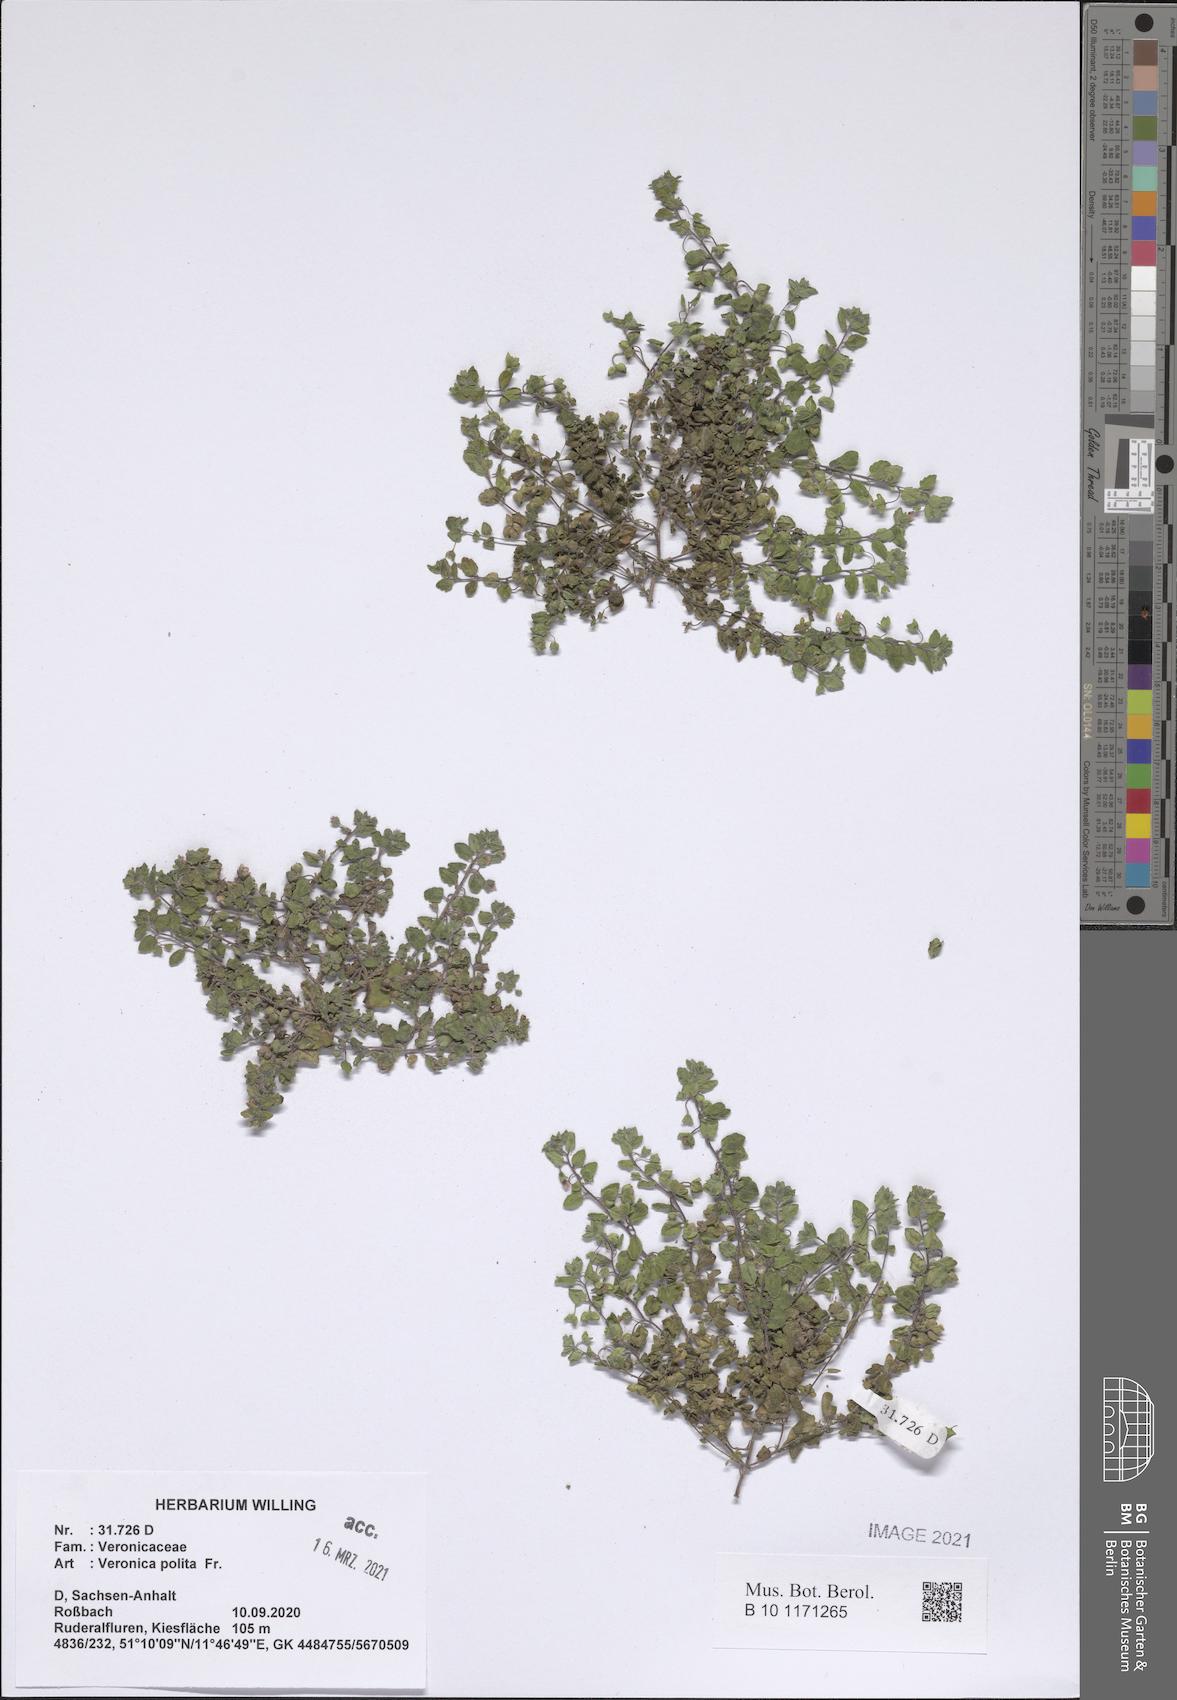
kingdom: Plantae
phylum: Tracheophyta
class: Magnoliopsida
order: Lamiales
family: Plantaginaceae
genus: Veronica
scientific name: Veronica polita
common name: Grey field-speedwell
